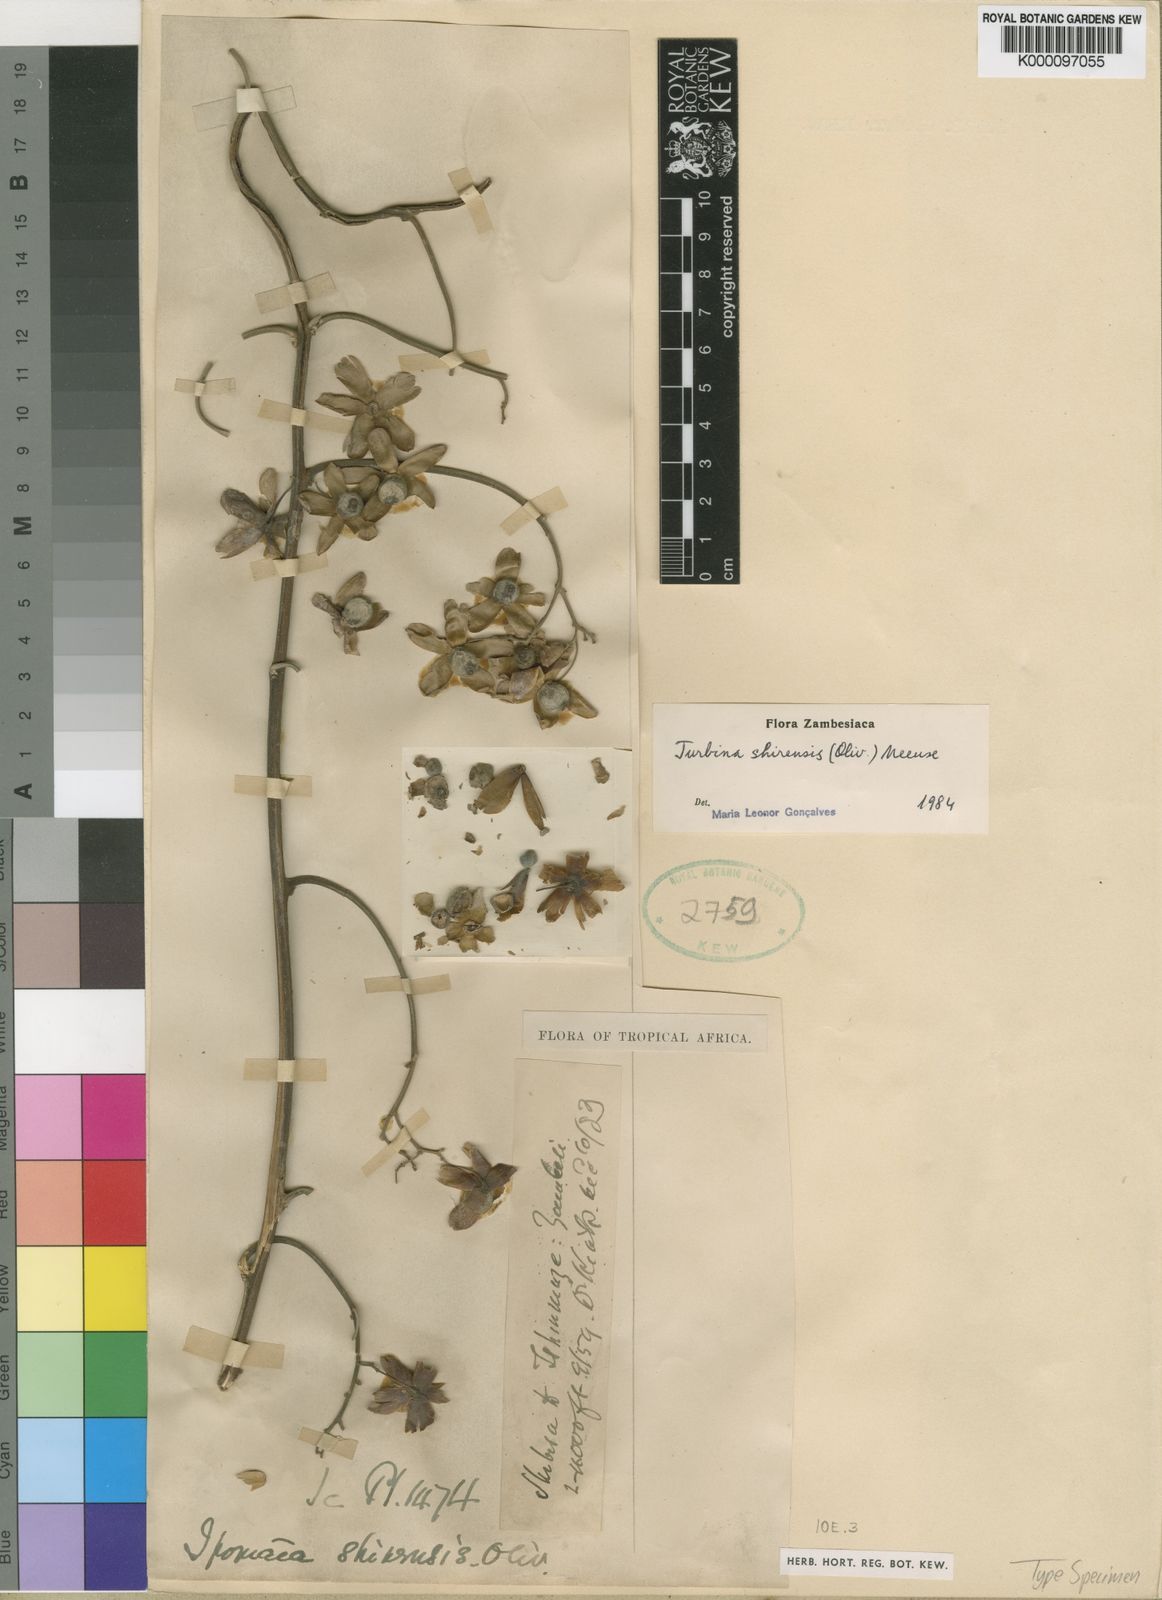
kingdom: Plantae
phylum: Tracheophyta
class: Magnoliopsida
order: Solanales
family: Convolvulaceae
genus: Paralepistemon
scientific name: Paralepistemon shirensis
